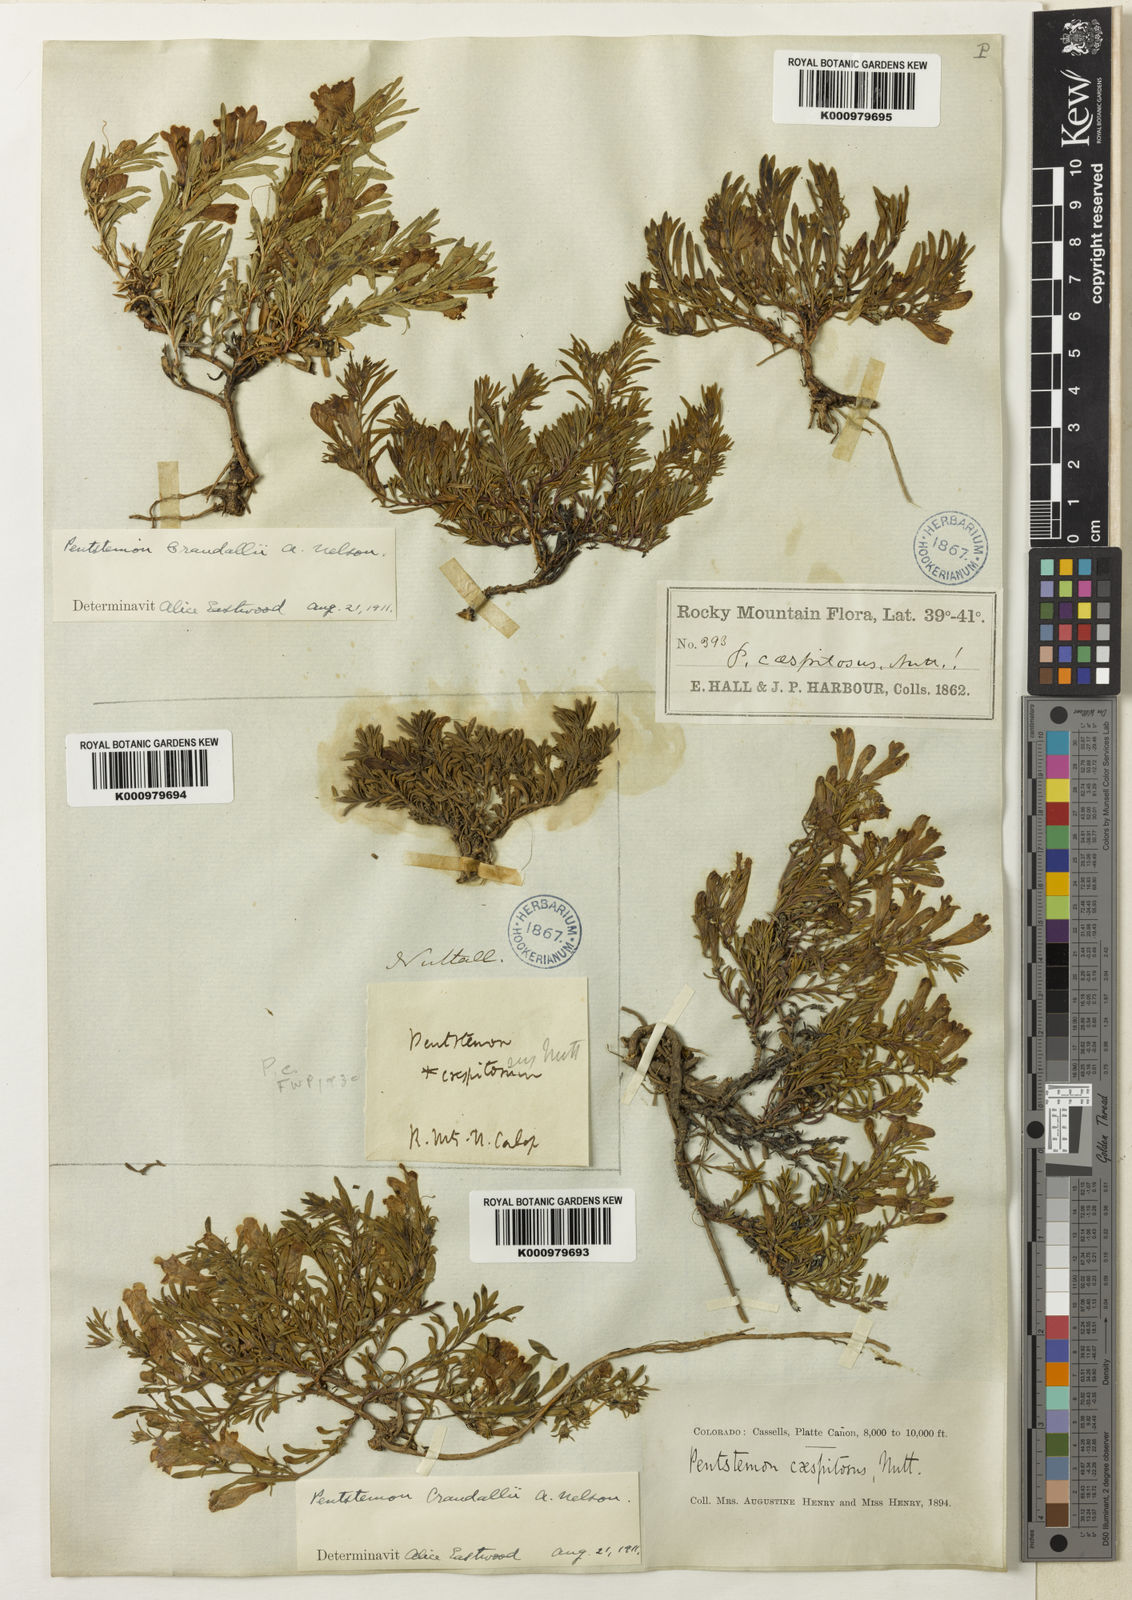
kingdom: Plantae
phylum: Tracheophyta
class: Magnoliopsida
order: Lamiales
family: Plantaginaceae
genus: Penstemon
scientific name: Penstemon caespitosus
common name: Mat penstemon
